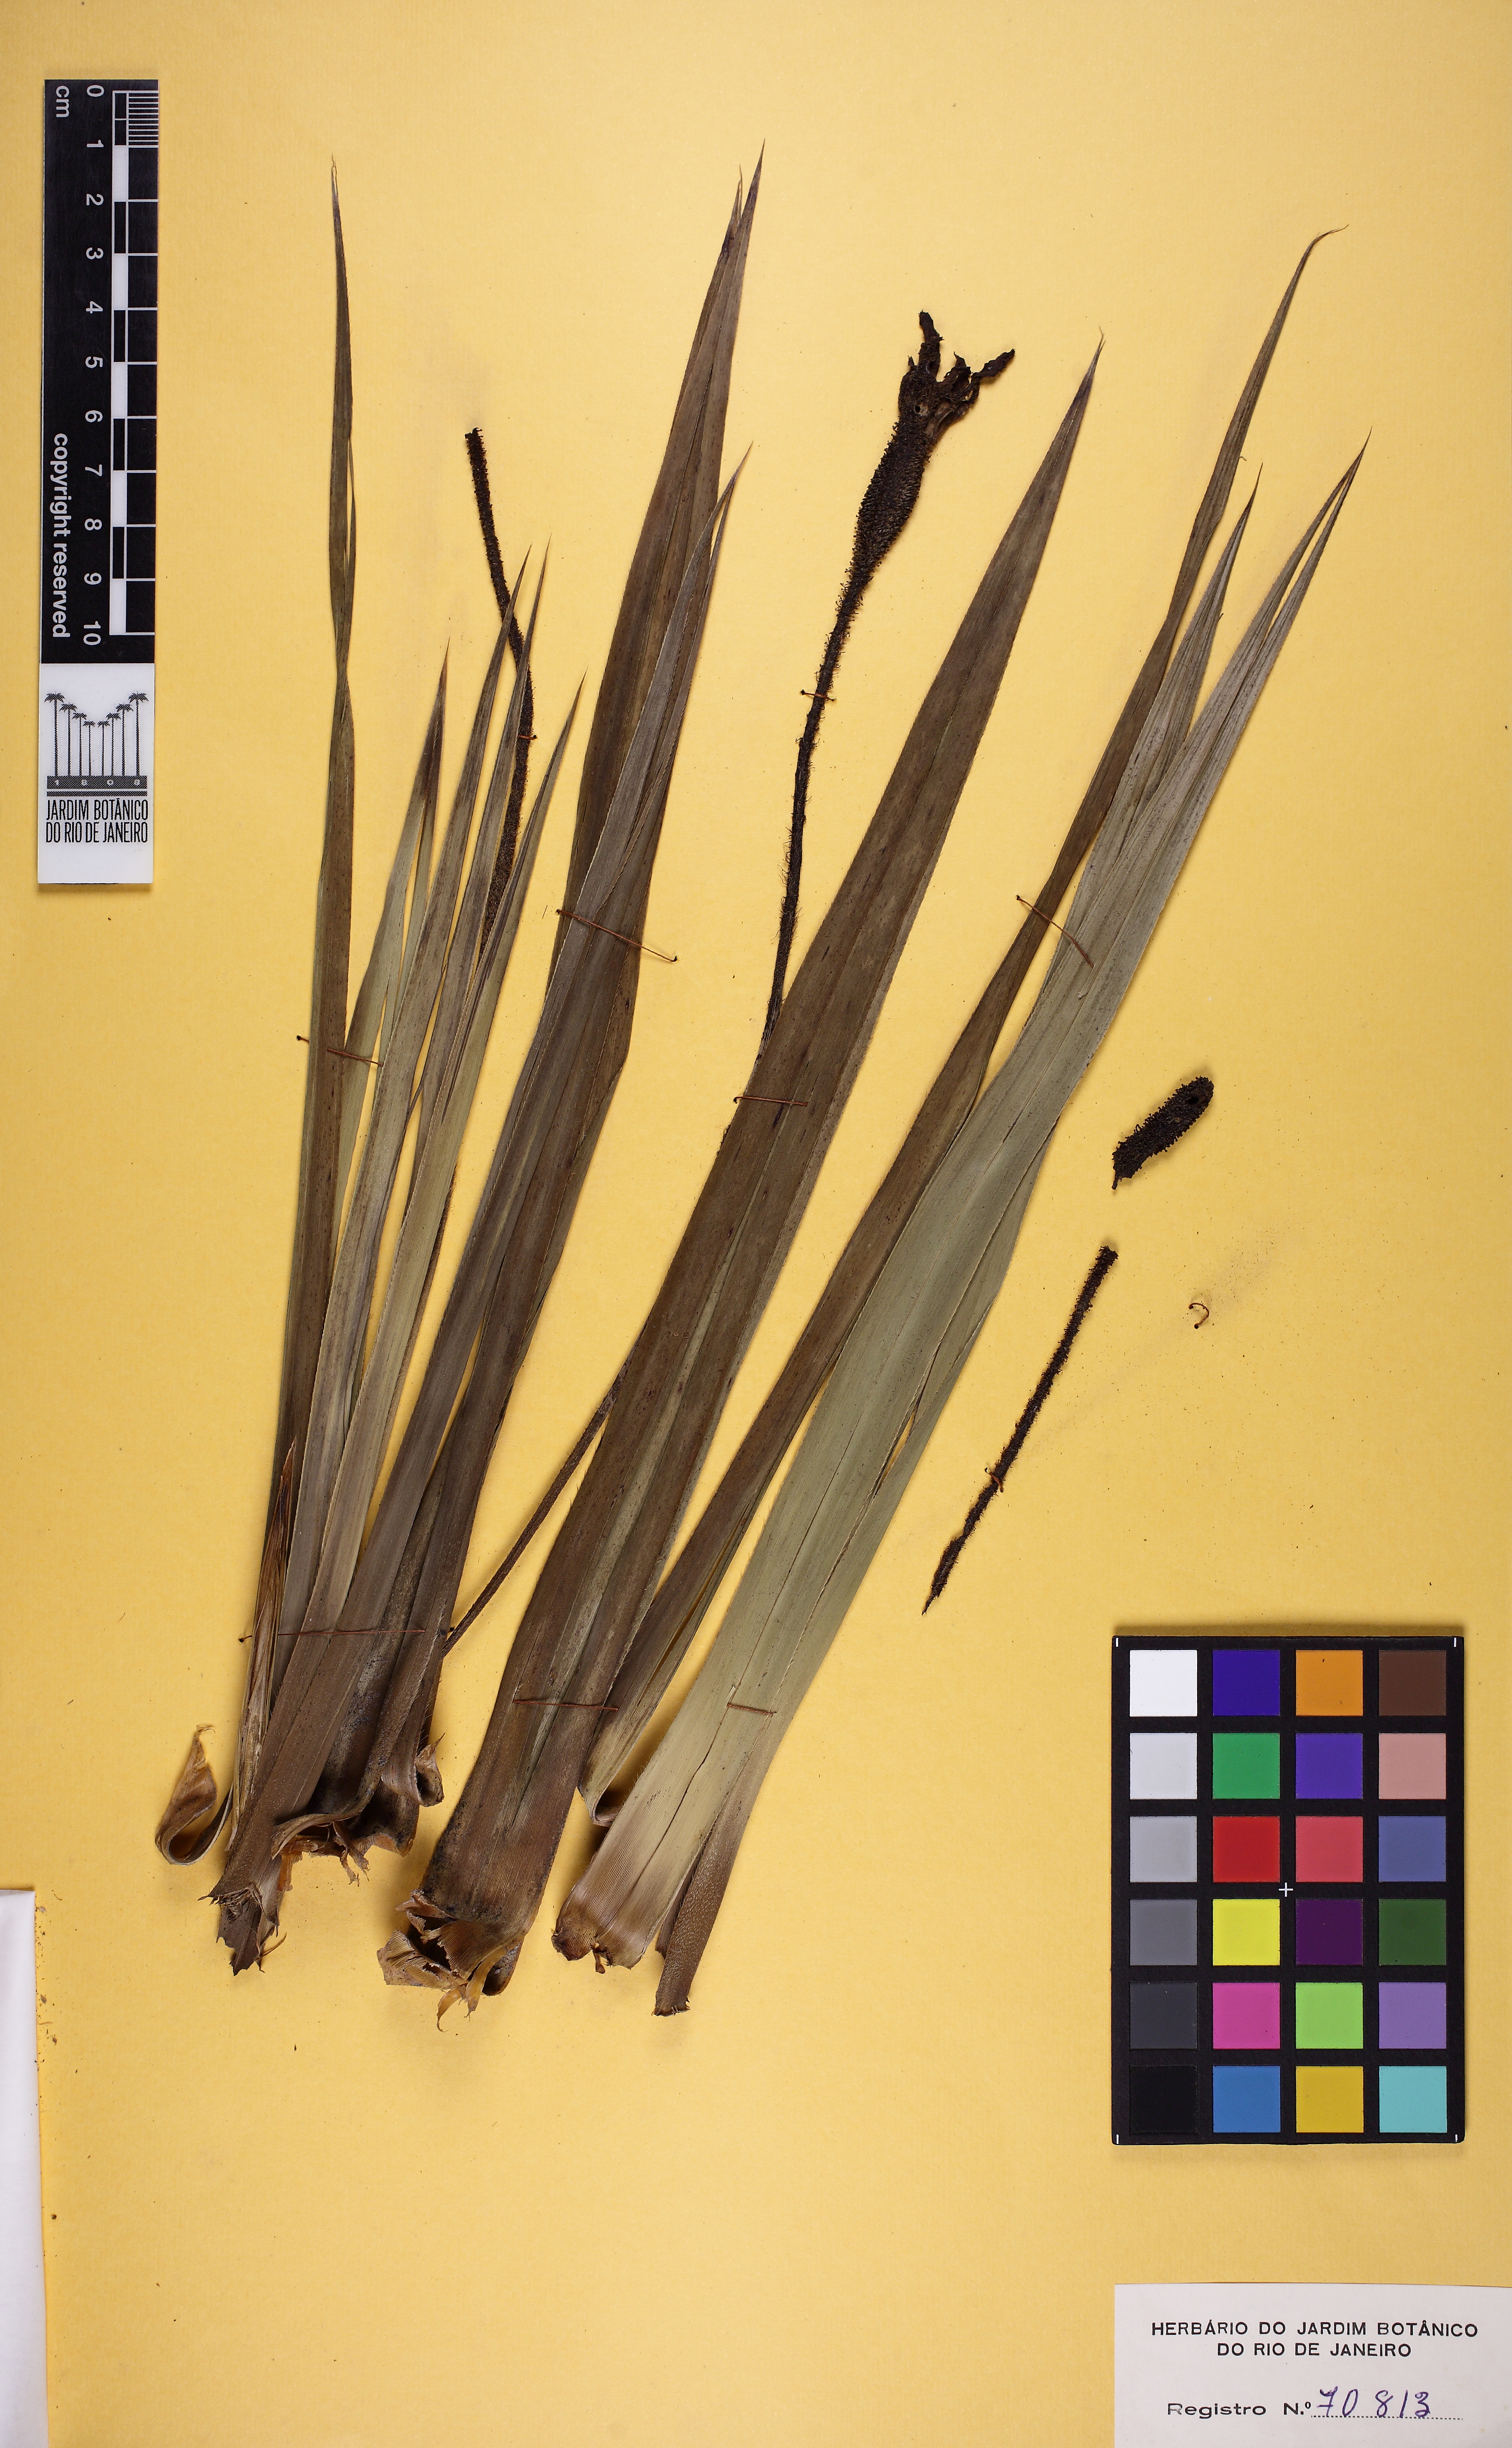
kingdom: Plantae
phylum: Tracheophyta
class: Liliopsida
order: Pandanales
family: Velloziaceae
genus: Barbacenia
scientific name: Barbacenia flava
